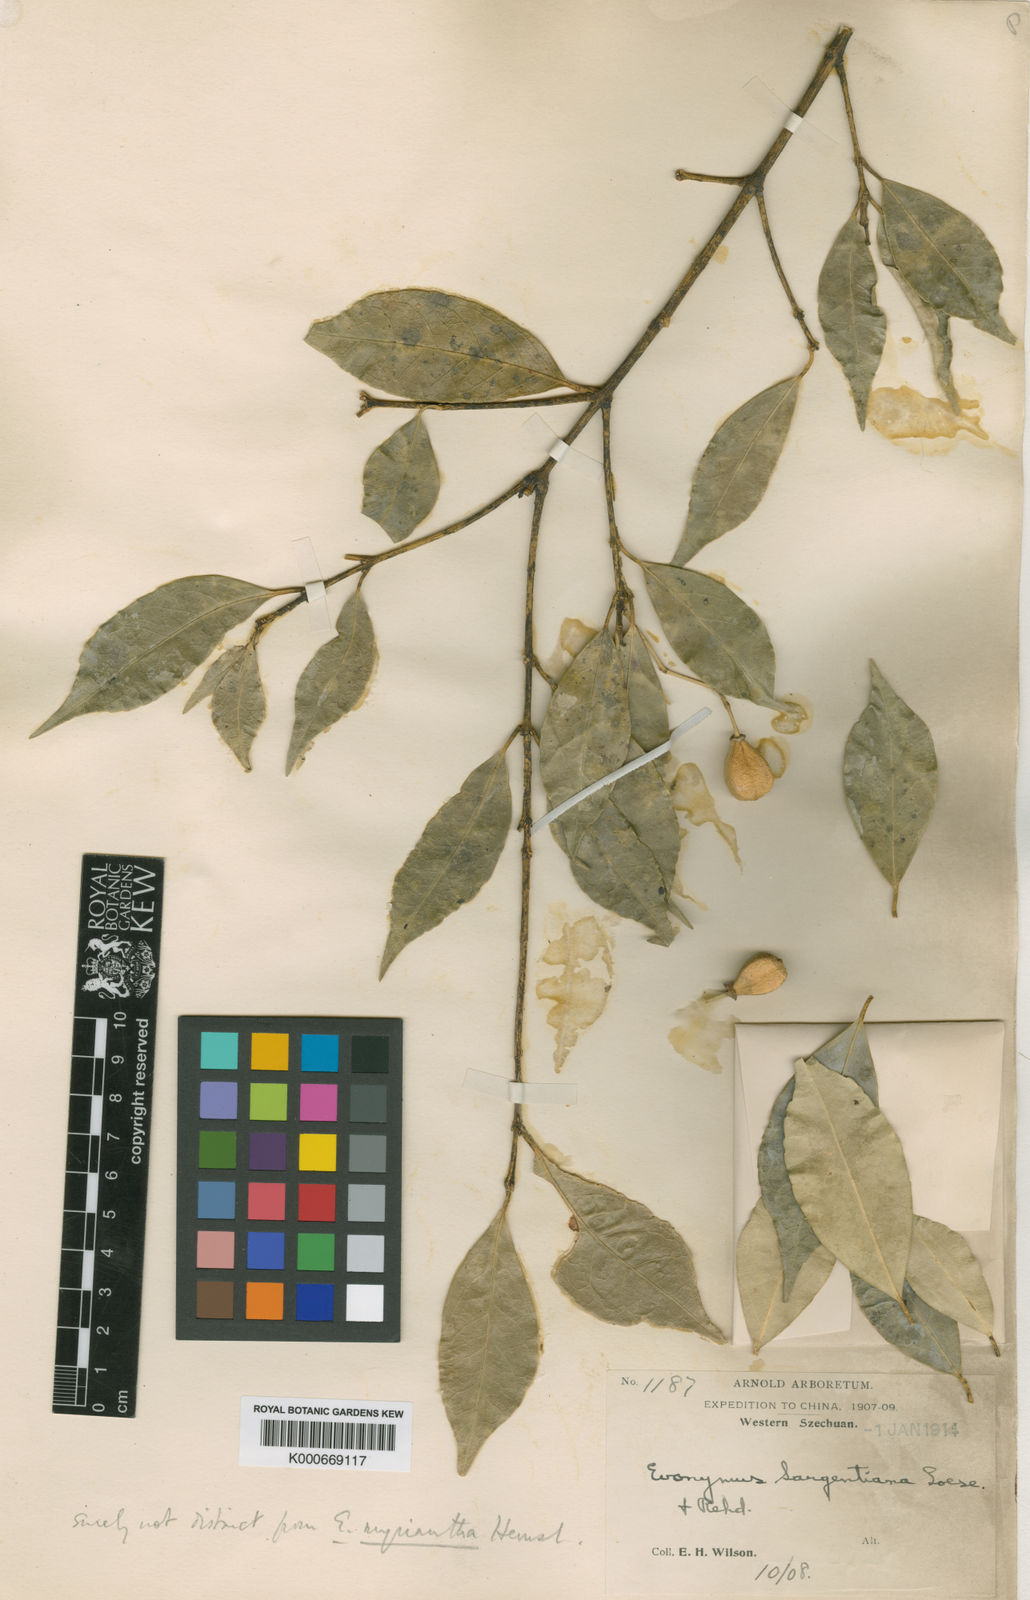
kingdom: Plantae
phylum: Tracheophyta
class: Magnoliopsida
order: Celastrales
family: Celastraceae
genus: Euonymus
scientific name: Euonymus myrianthus
